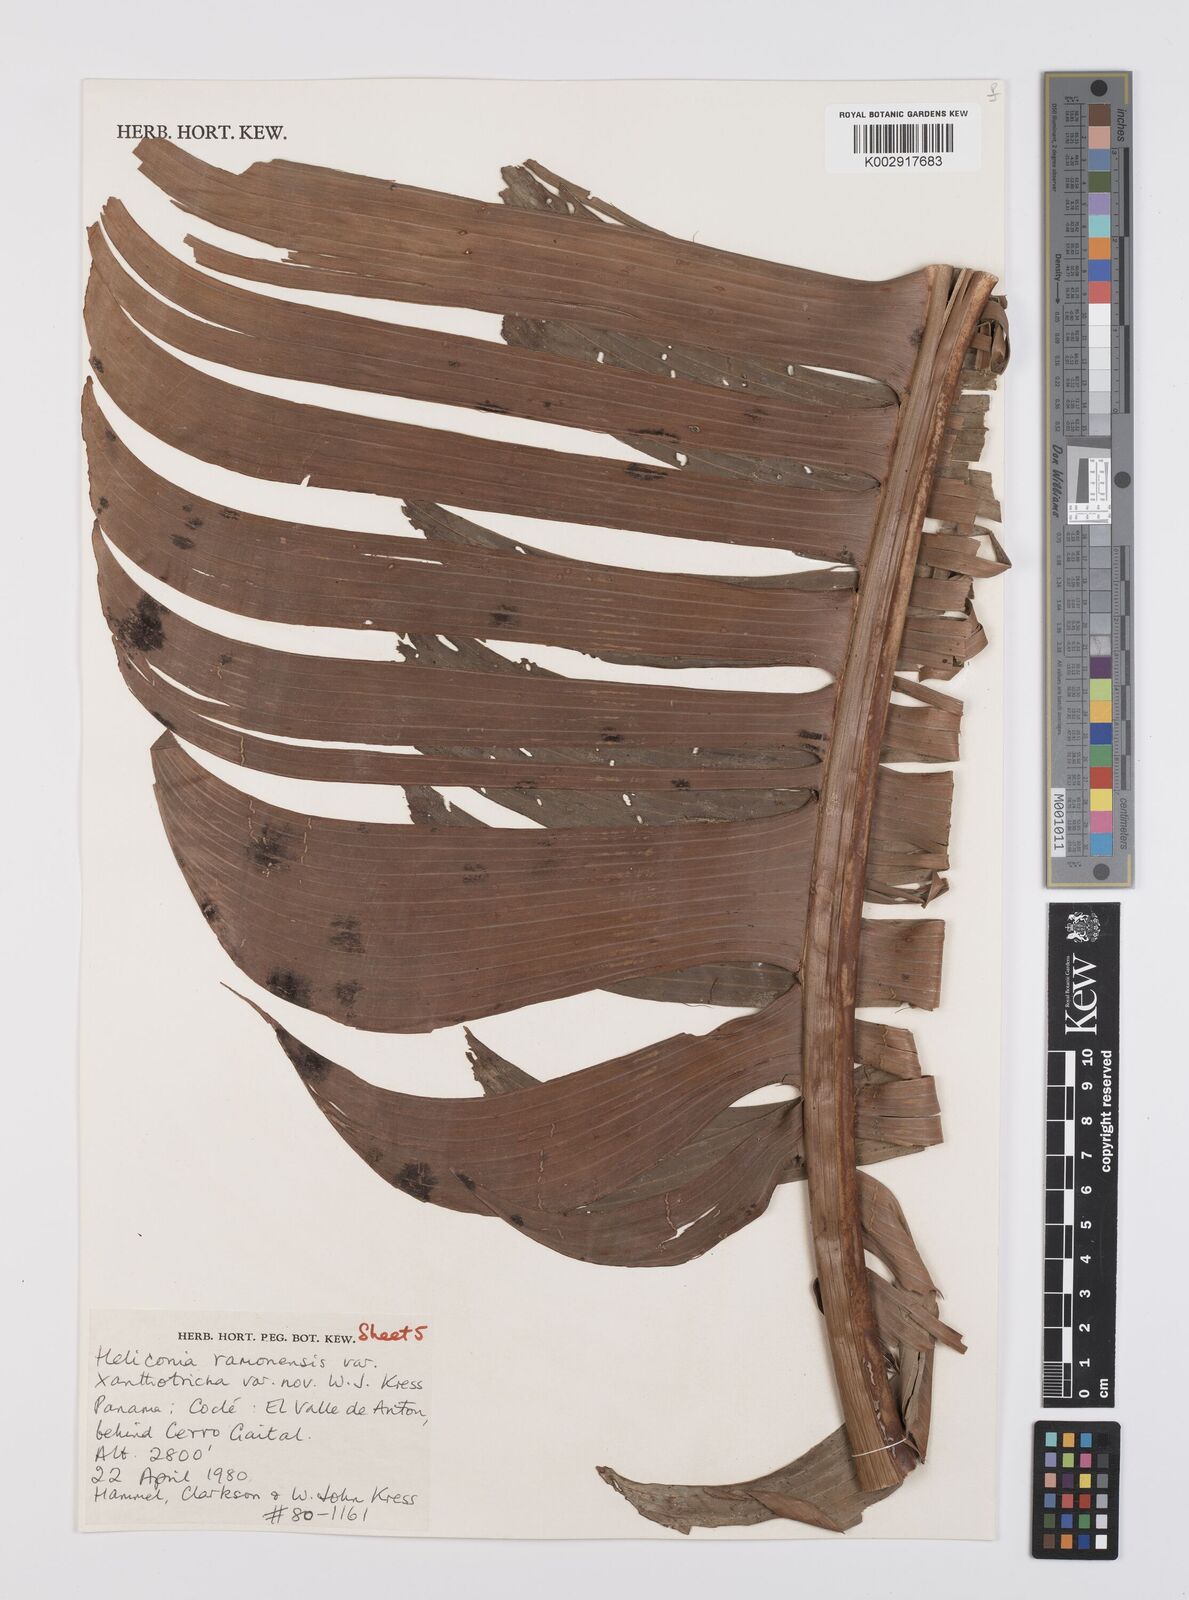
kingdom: Plantae
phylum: Tracheophyta
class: Liliopsida
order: Zingiberales
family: Heliconiaceae
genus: Heliconia
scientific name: Heliconia ramonensis
